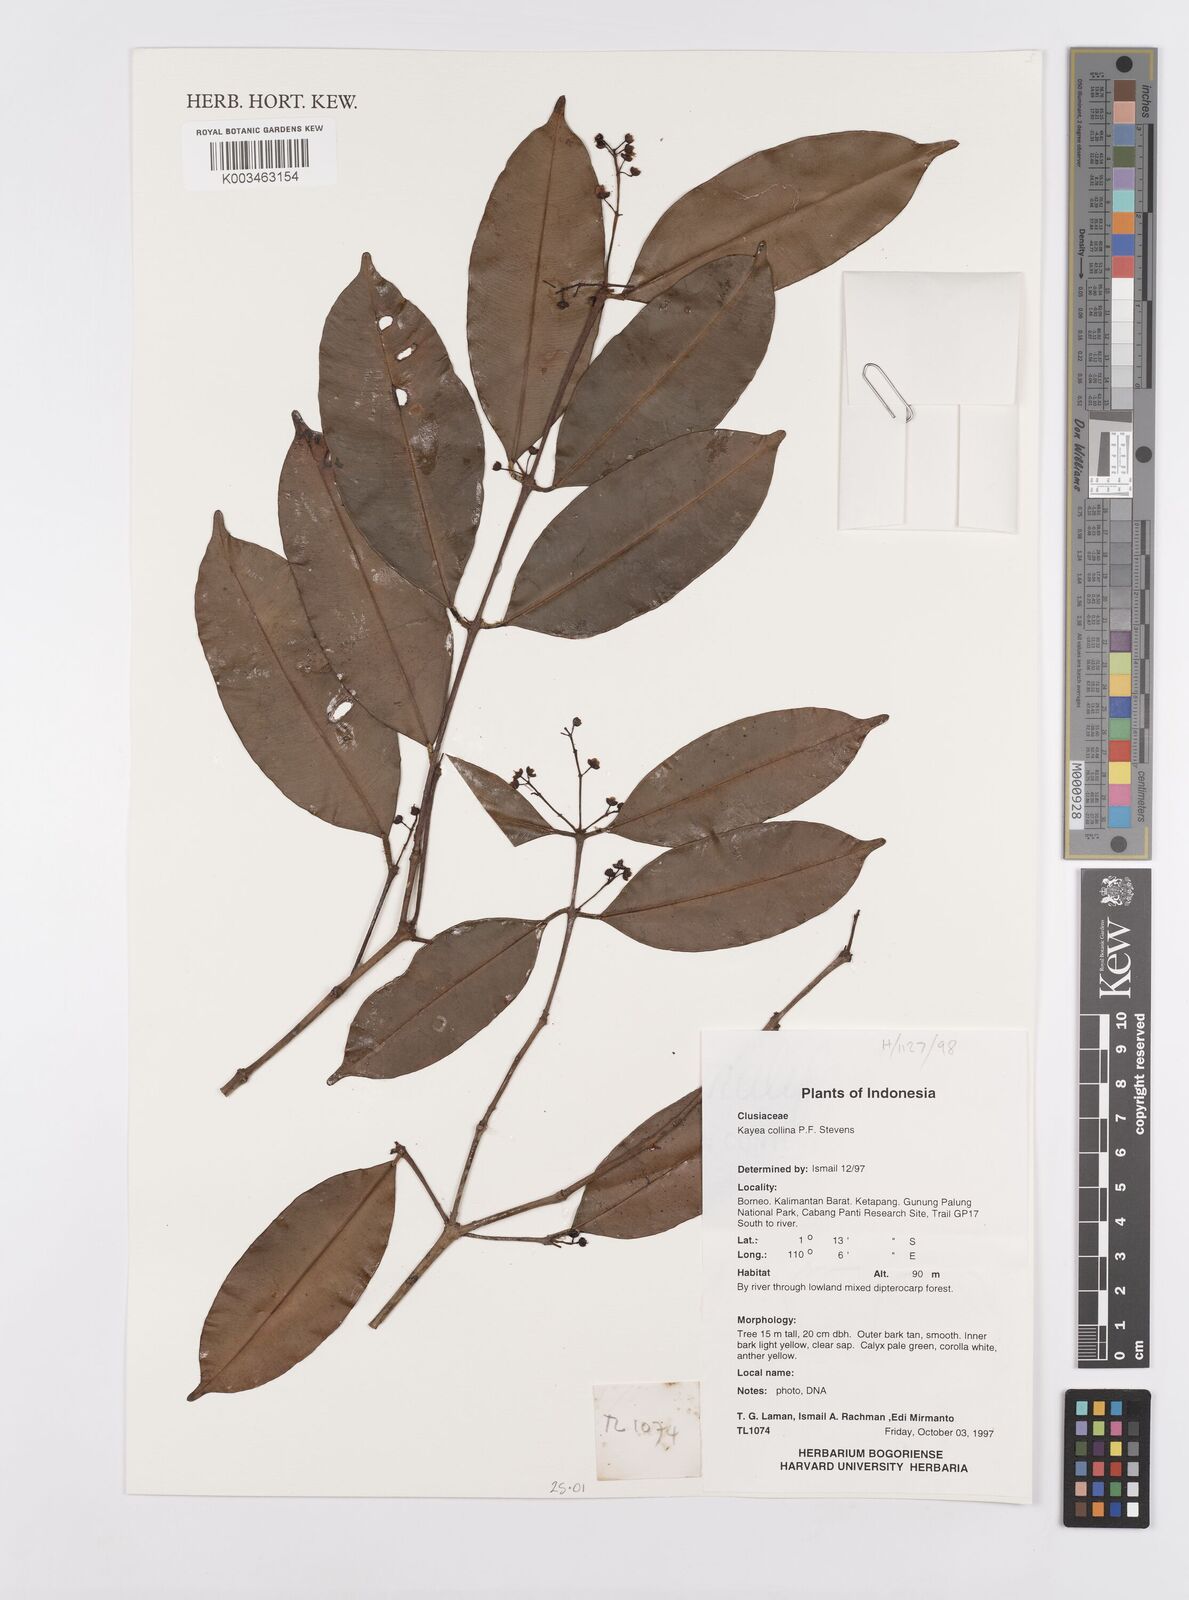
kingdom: Plantae
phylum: Tracheophyta
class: Magnoliopsida
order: Malpighiales
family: Calophyllaceae
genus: Kayea
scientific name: Kayea
